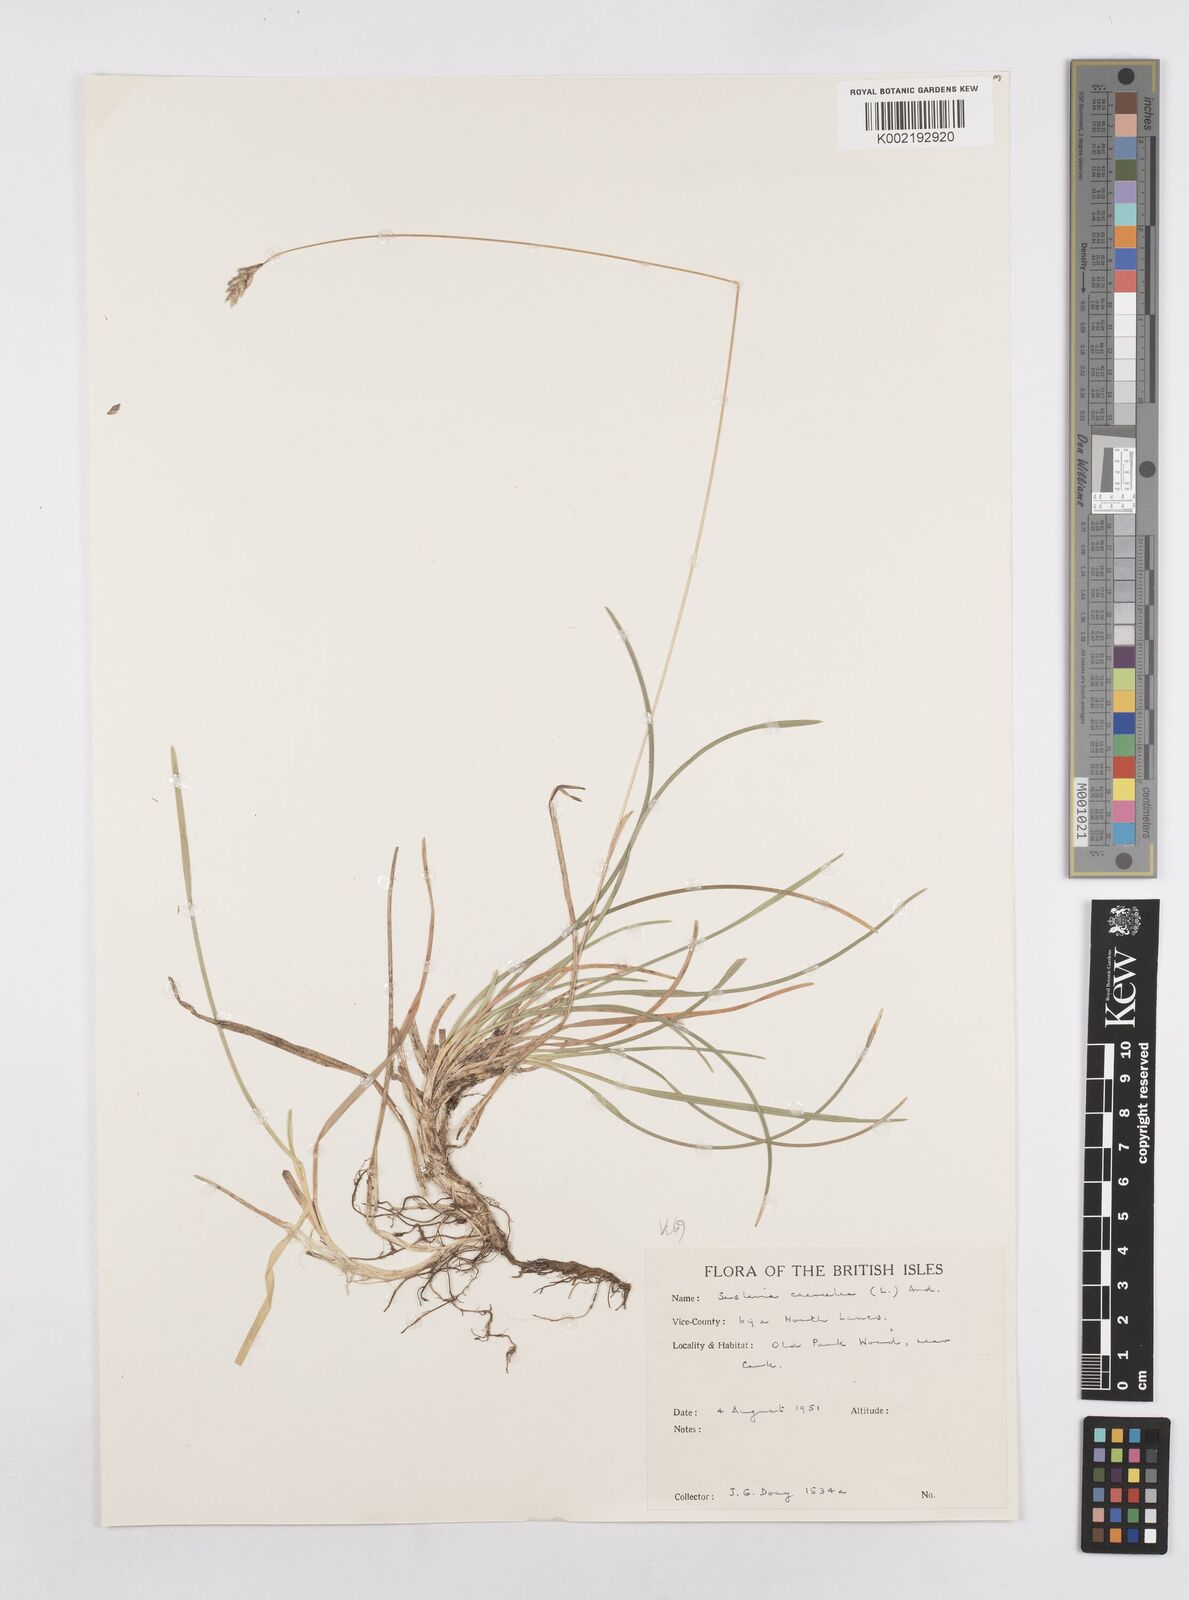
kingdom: Plantae
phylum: Tracheophyta
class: Liliopsida
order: Poales
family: Poaceae
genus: Sesleria
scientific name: Sesleria caerulea
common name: Blue moor-grass
